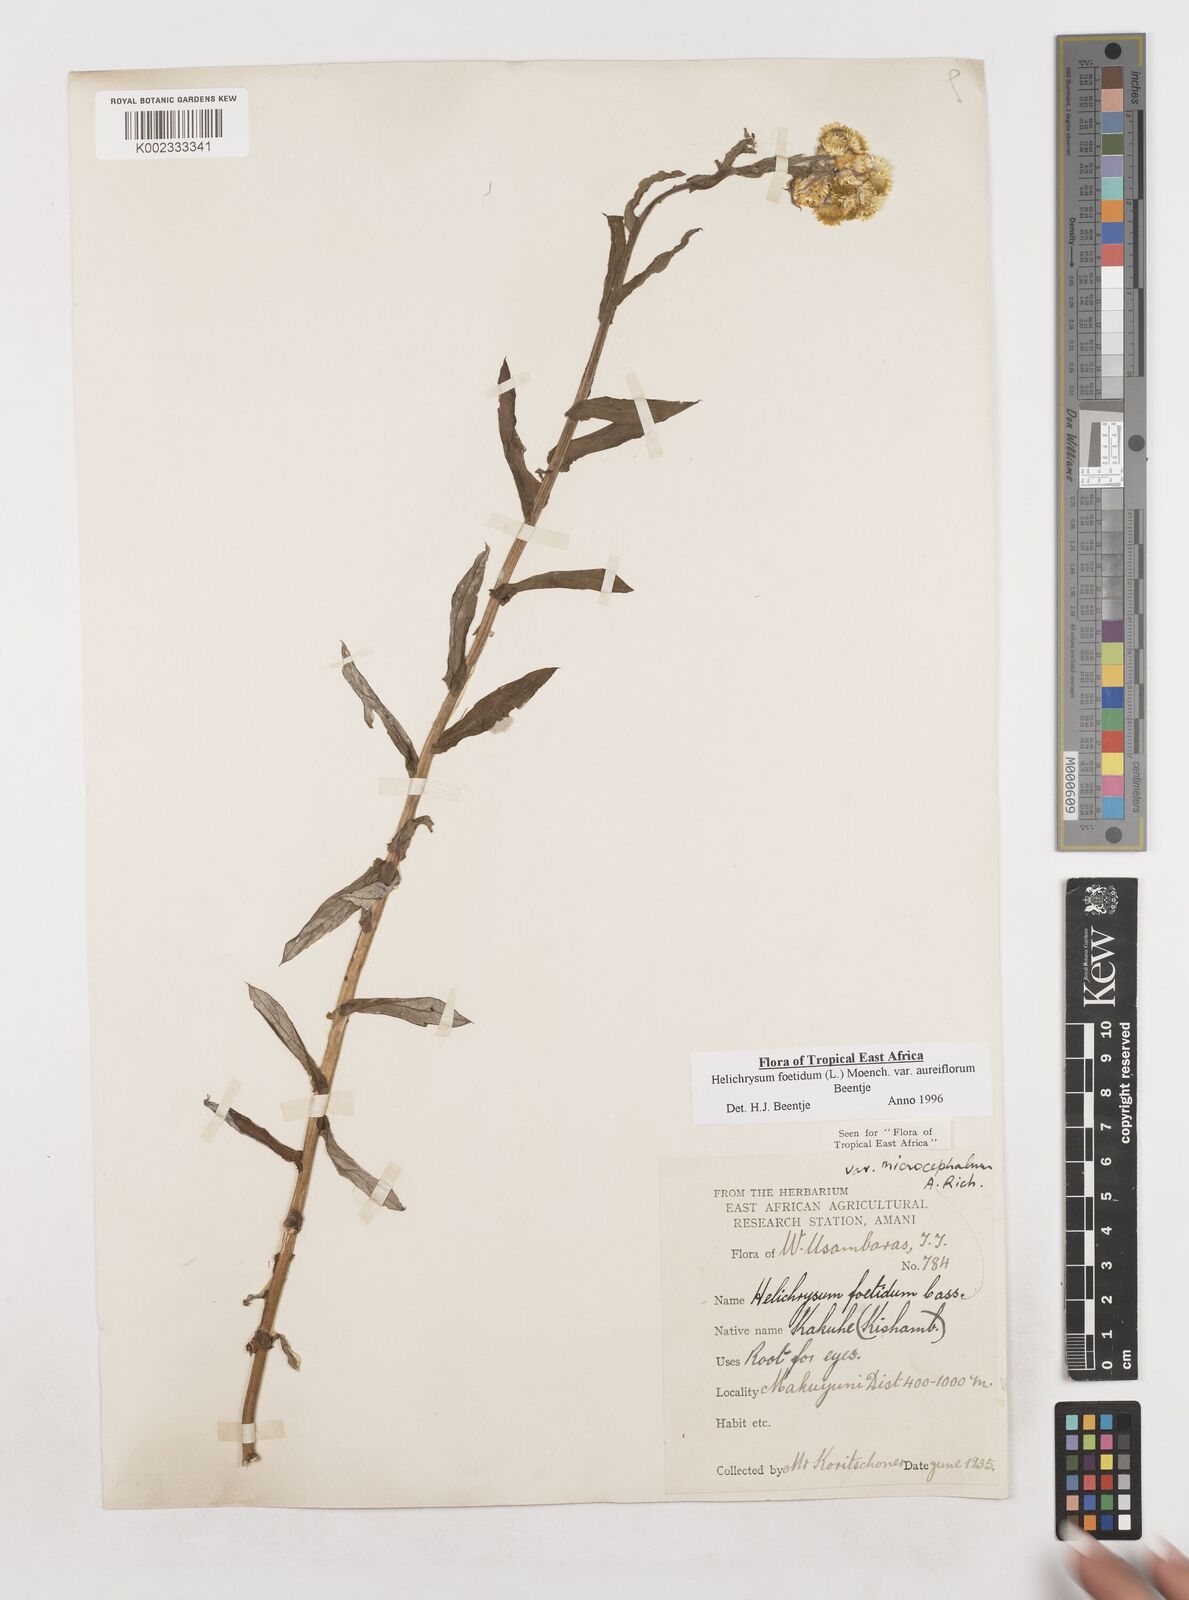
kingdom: Plantae
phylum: Tracheophyta
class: Magnoliopsida
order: Asterales
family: Asteraceae
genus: Helichrysum
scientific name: Helichrysum foetidum
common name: Stinking everlasting
